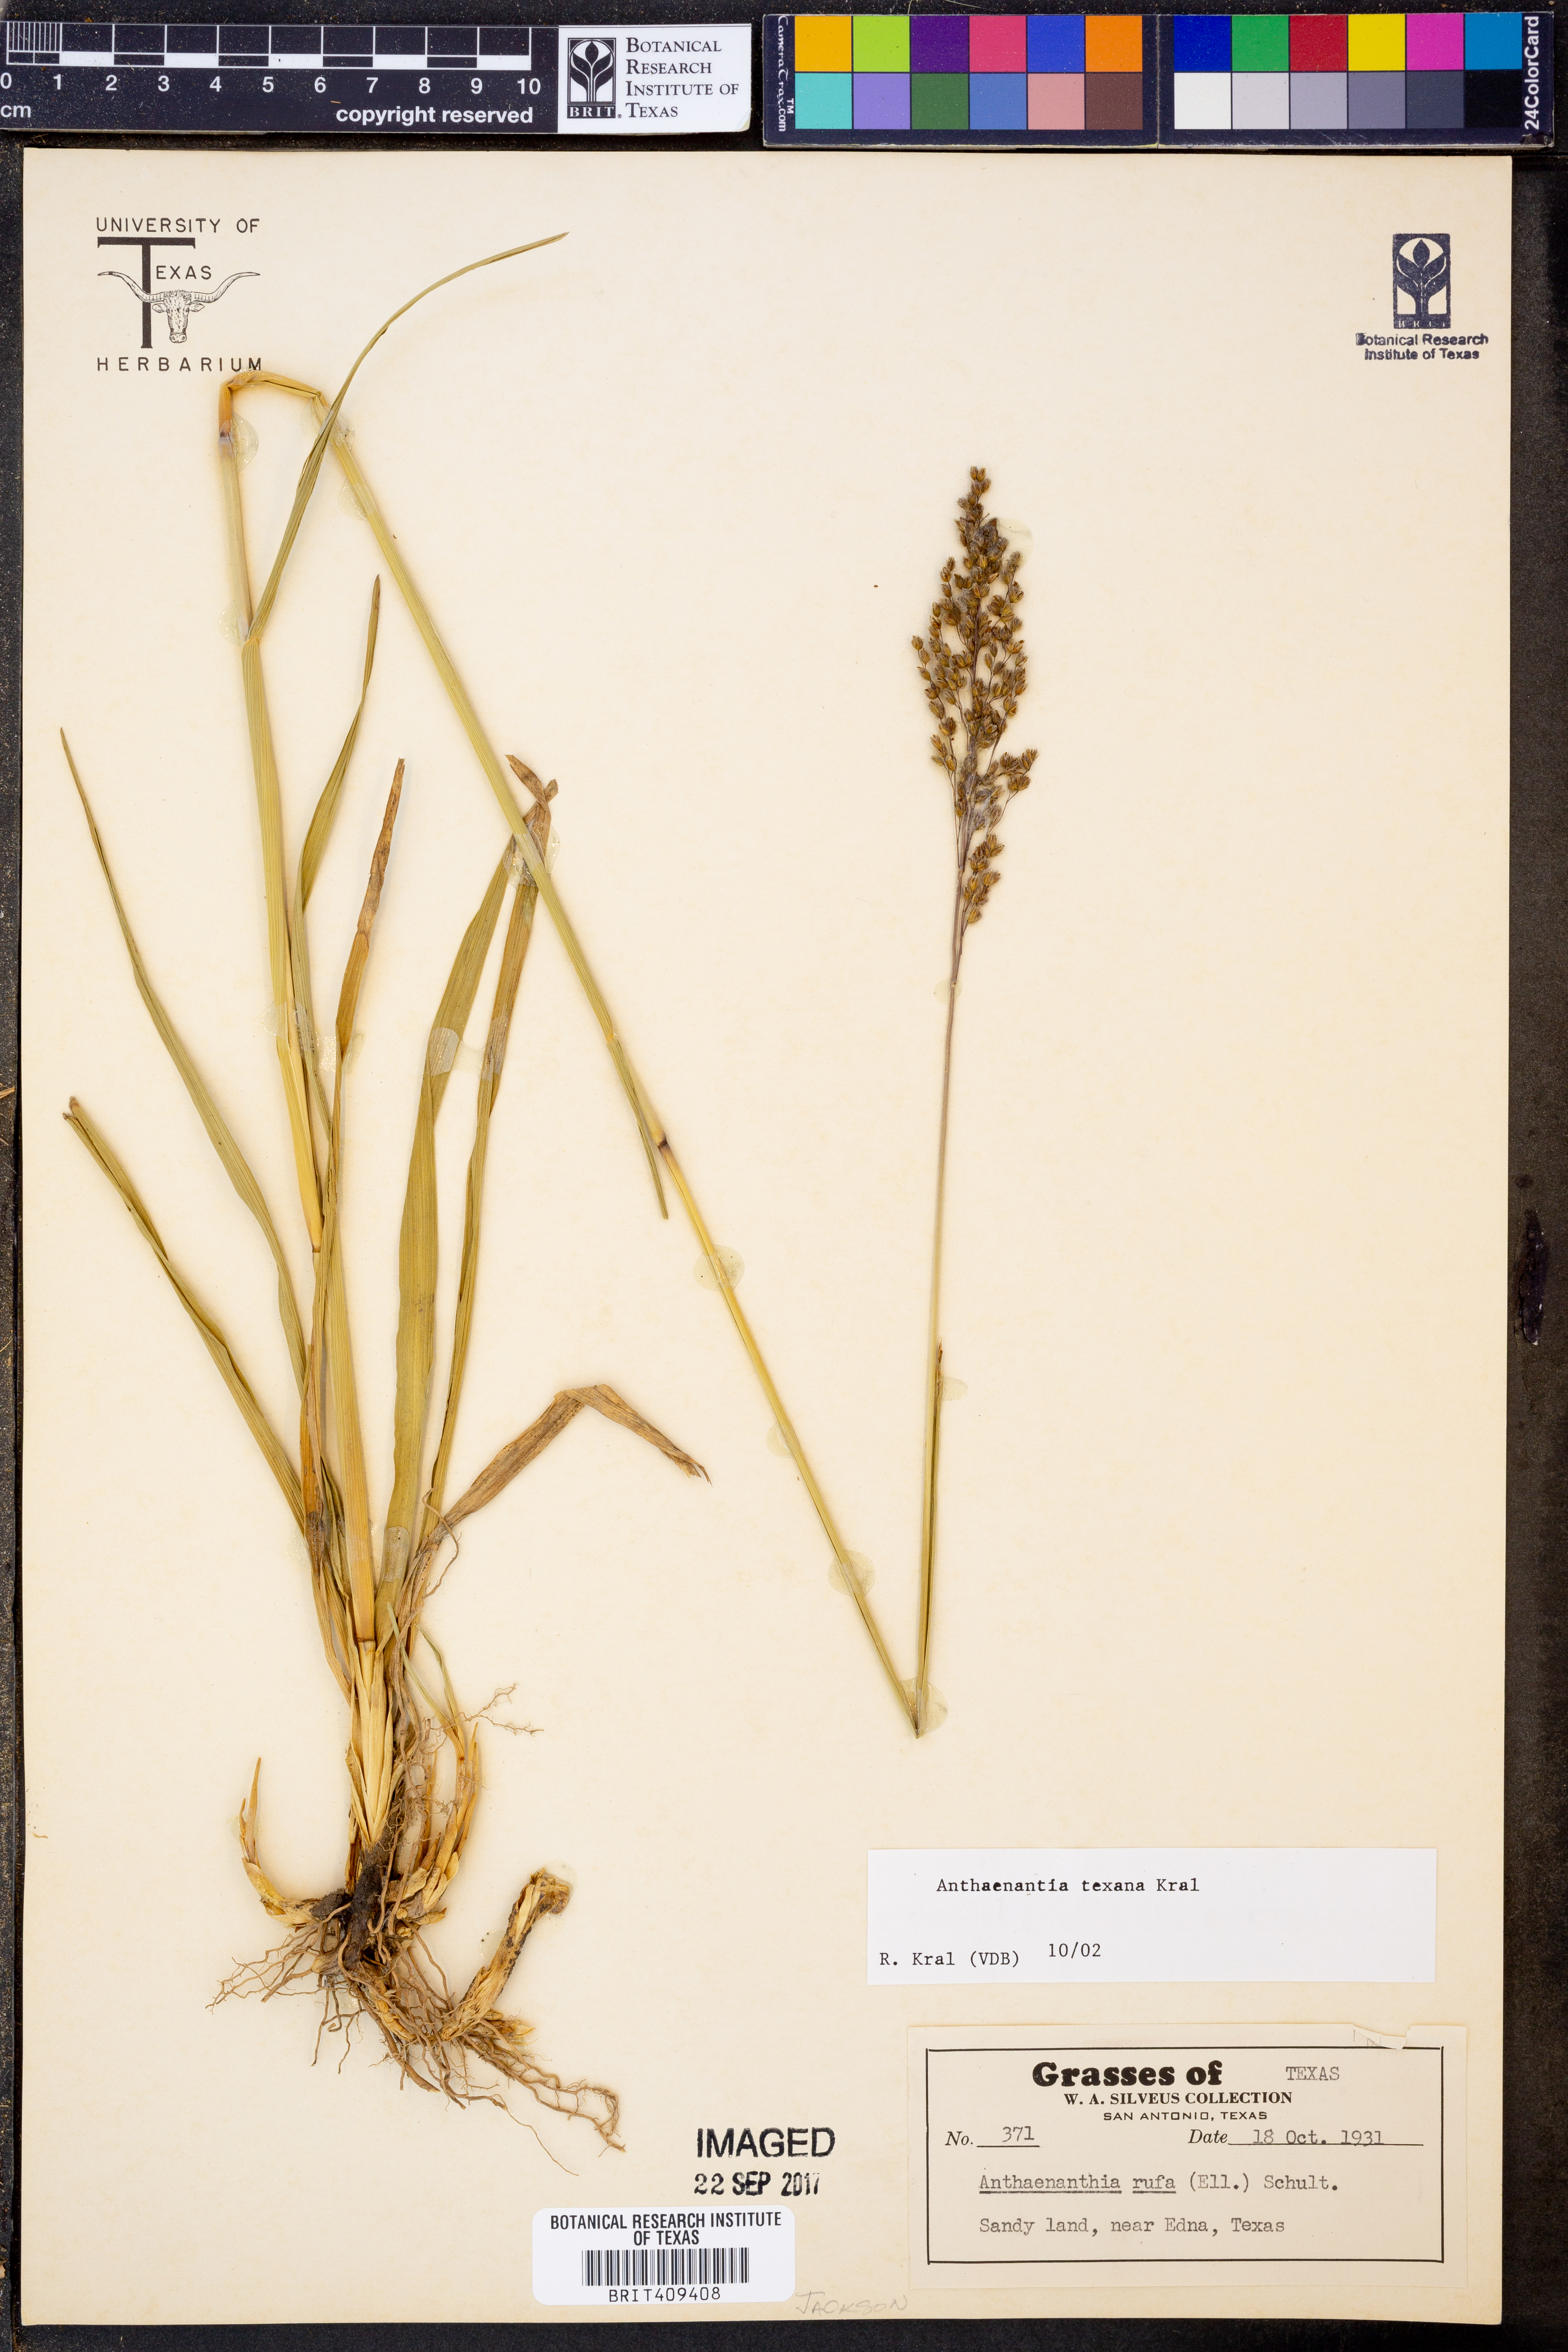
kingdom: Plantae
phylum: Tracheophyta
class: Liliopsida
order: Poales
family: Poaceae
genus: Anthaenantia
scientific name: Anthaenantia texana
